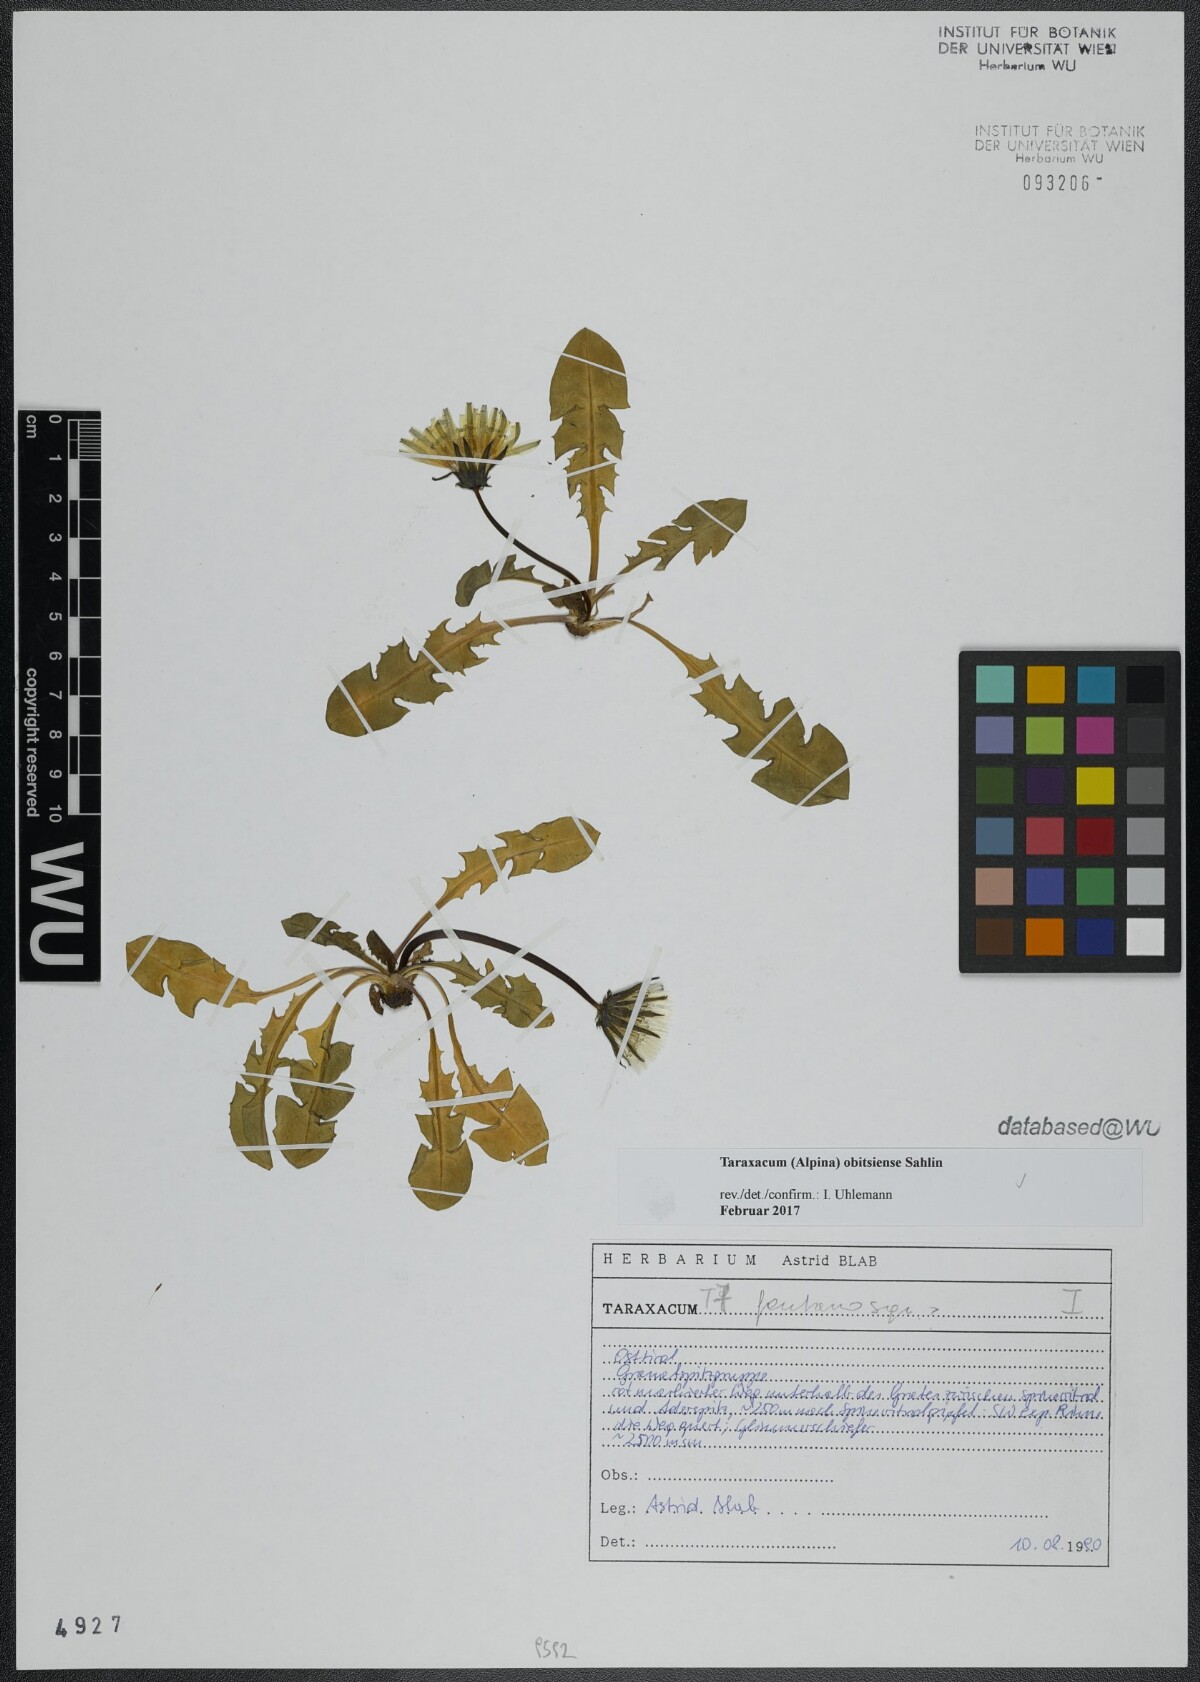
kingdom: Plantae
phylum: Tracheophyta
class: Magnoliopsida
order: Asterales
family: Asteraceae
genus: Taraxacum
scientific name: Taraxacum obitsiense
